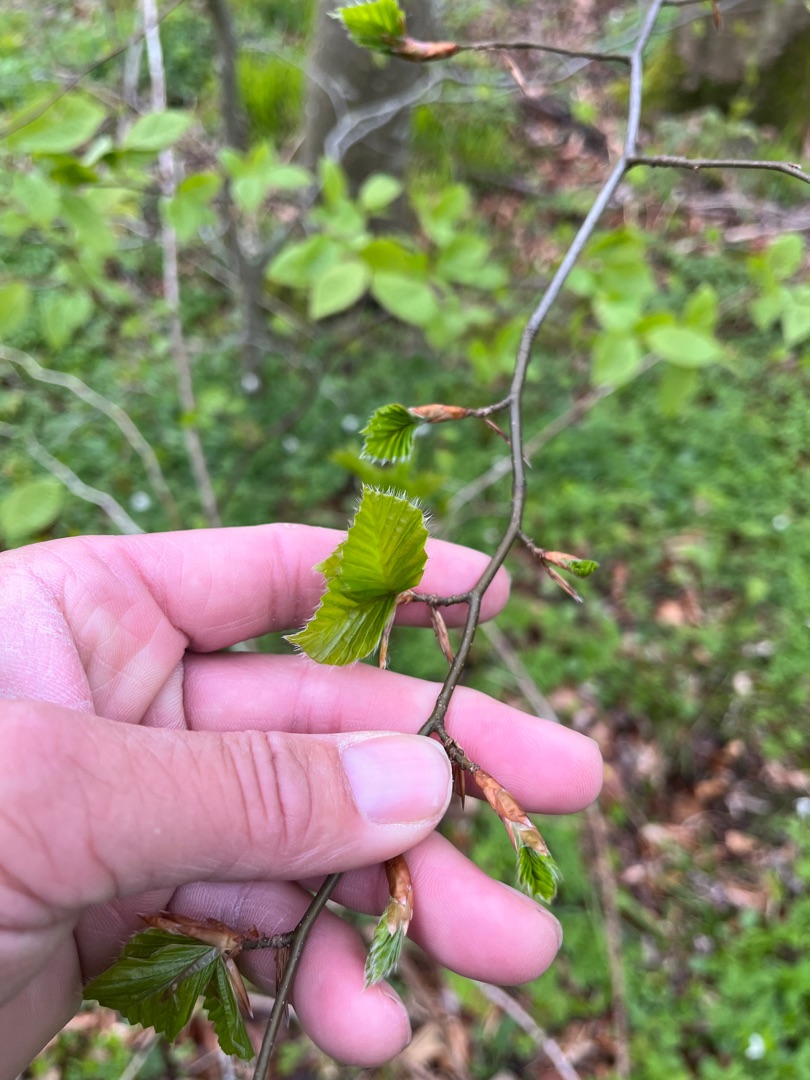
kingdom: Plantae
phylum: Tracheophyta
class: Magnoliopsida
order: Fagales
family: Fagaceae
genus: Fagus
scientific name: Fagus sylvatica
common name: Bøg
